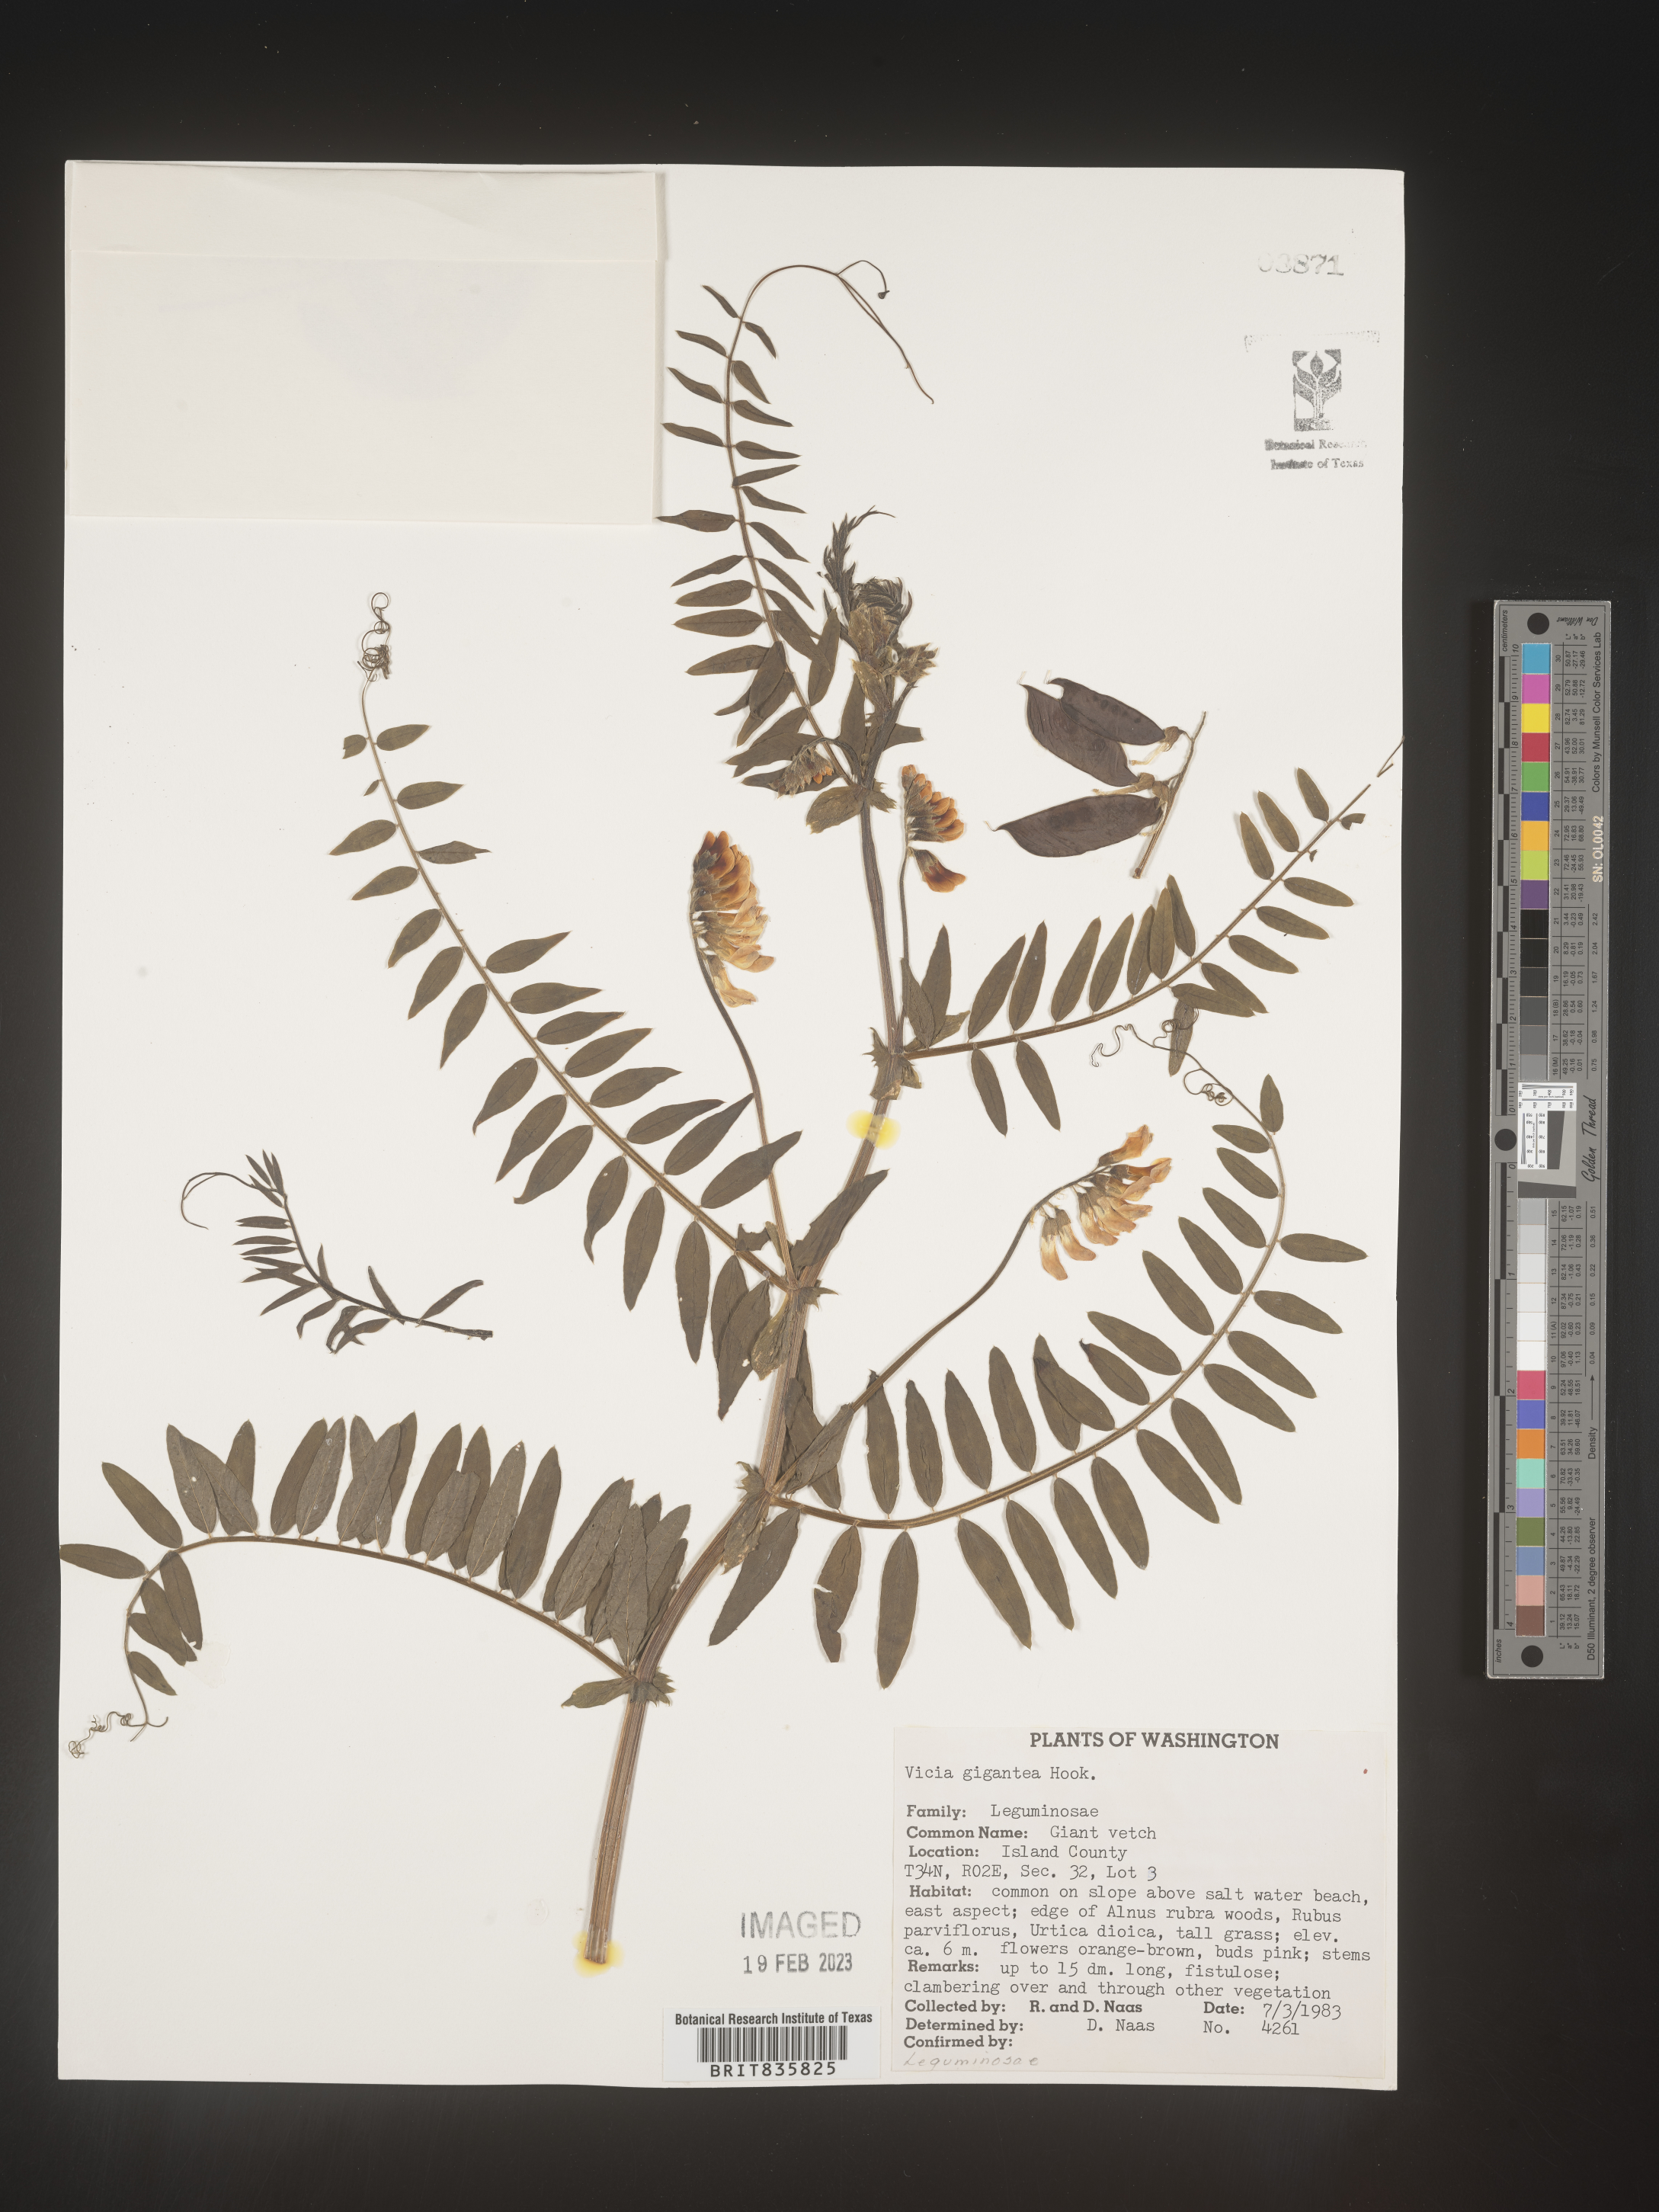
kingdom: Plantae
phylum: Tracheophyta
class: Magnoliopsida
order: Fabales
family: Fabaceae
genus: Vicia
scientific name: Vicia
